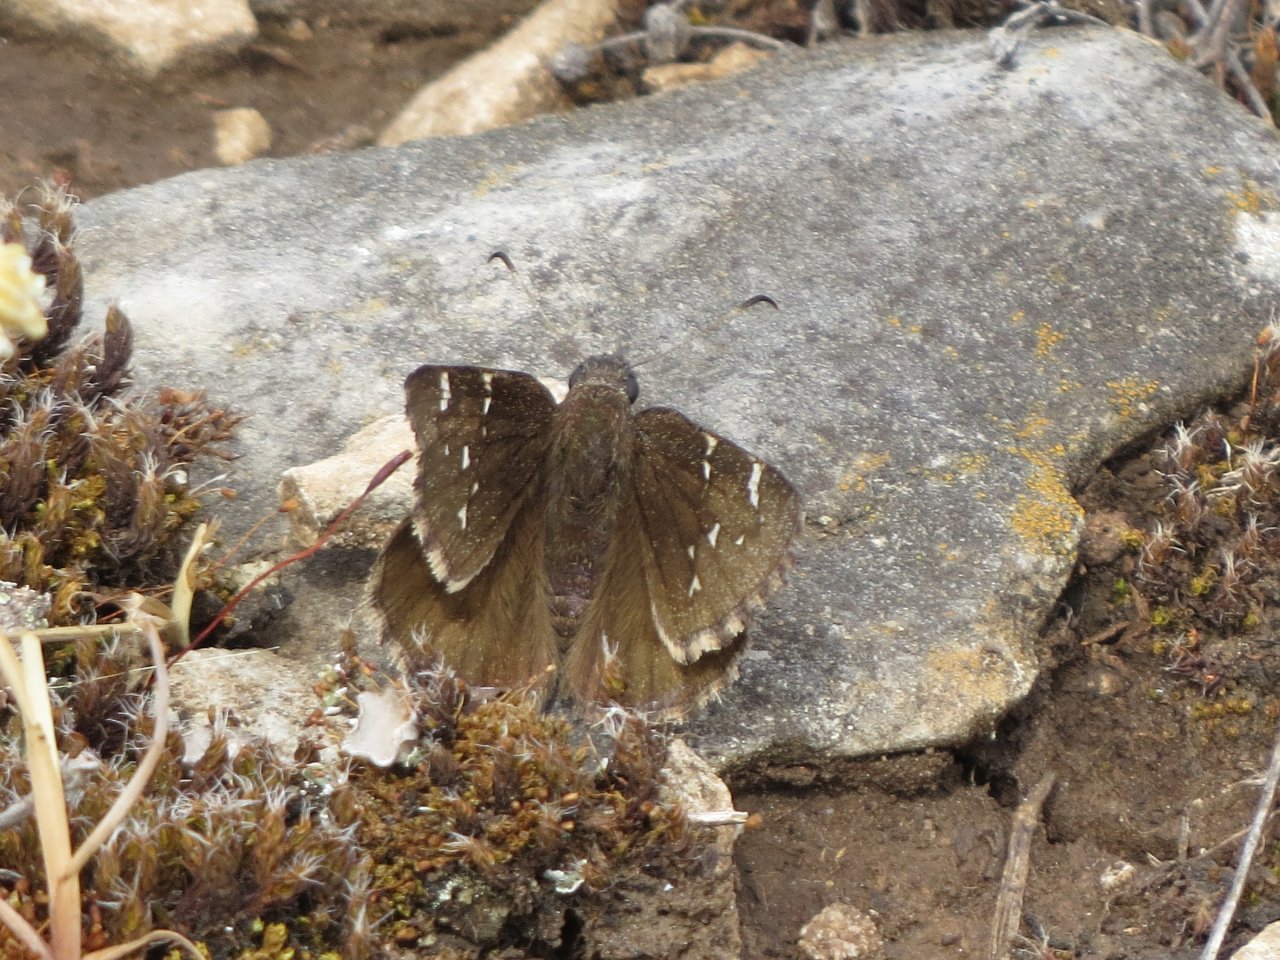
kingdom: Animalia
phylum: Arthropoda
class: Insecta
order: Lepidoptera
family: Hesperiidae
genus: Autochton
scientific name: Autochton
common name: Northern Cloudywing
